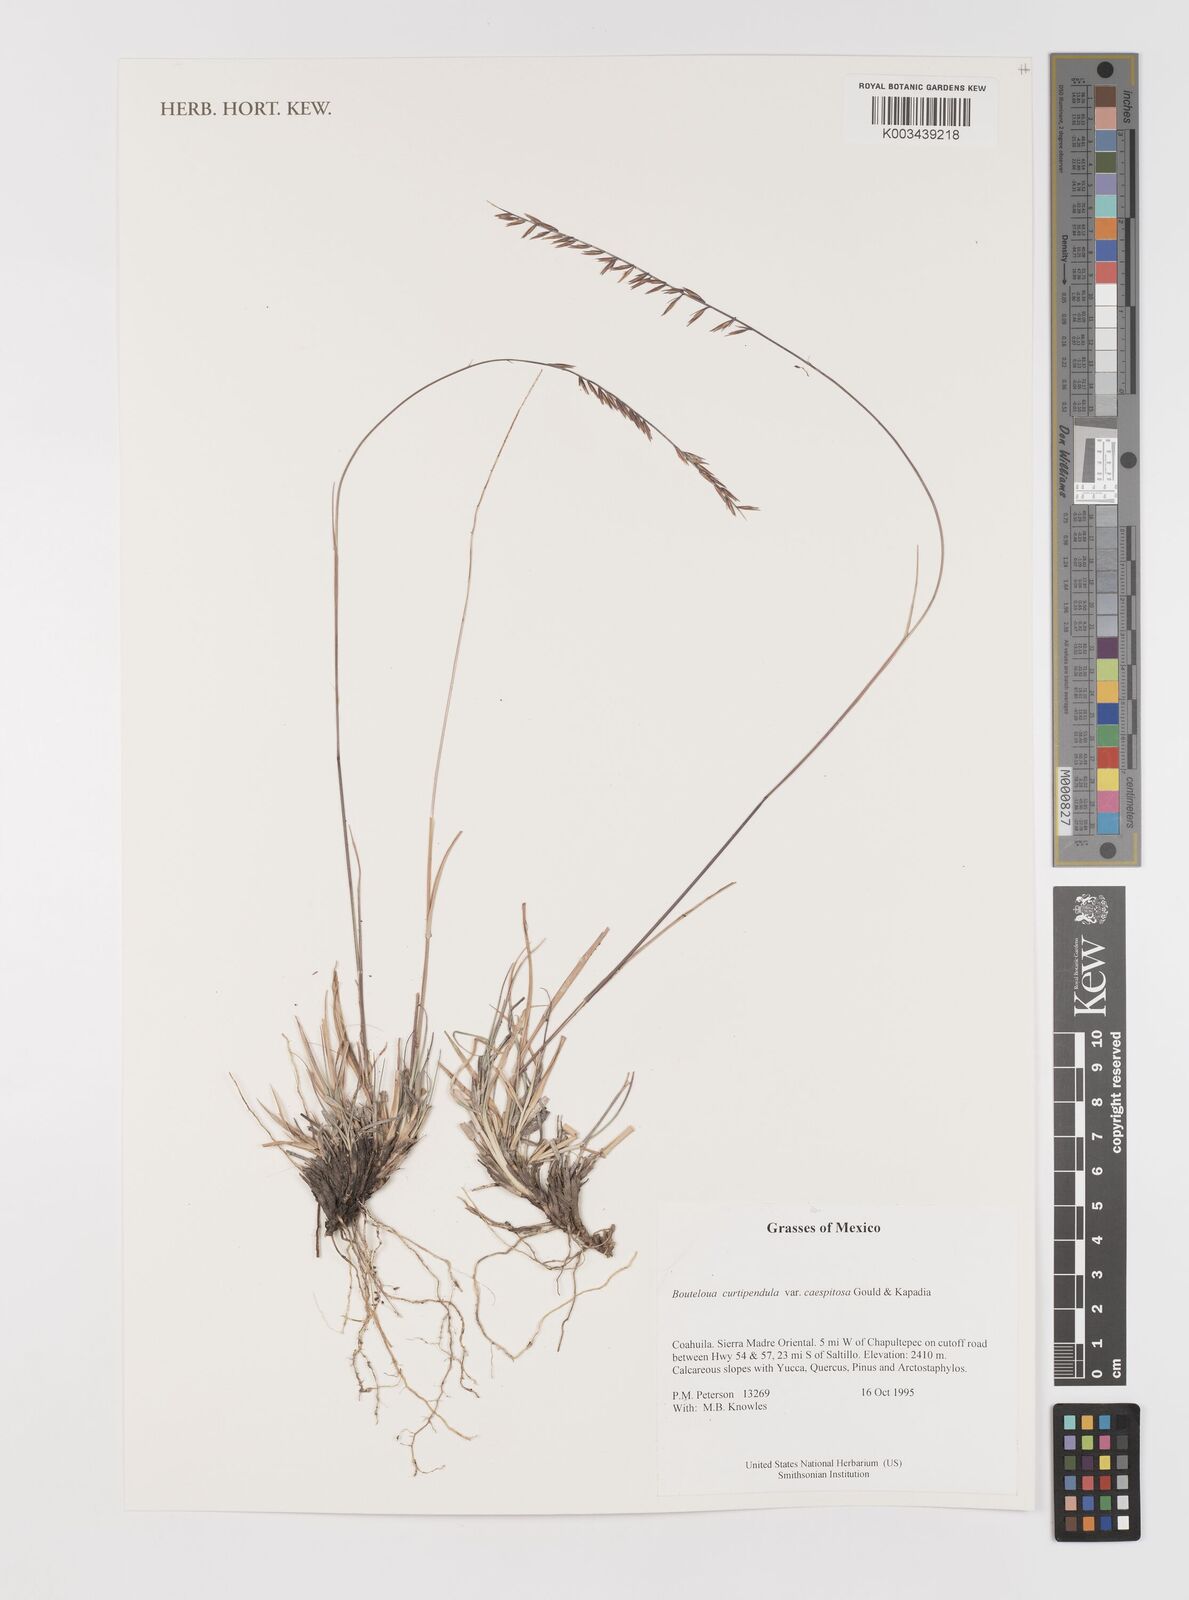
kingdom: Plantae
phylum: Tracheophyta
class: Liliopsida
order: Poales
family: Poaceae
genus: Bouteloua
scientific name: Bouteloua curtipendula
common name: Side-oats grama
